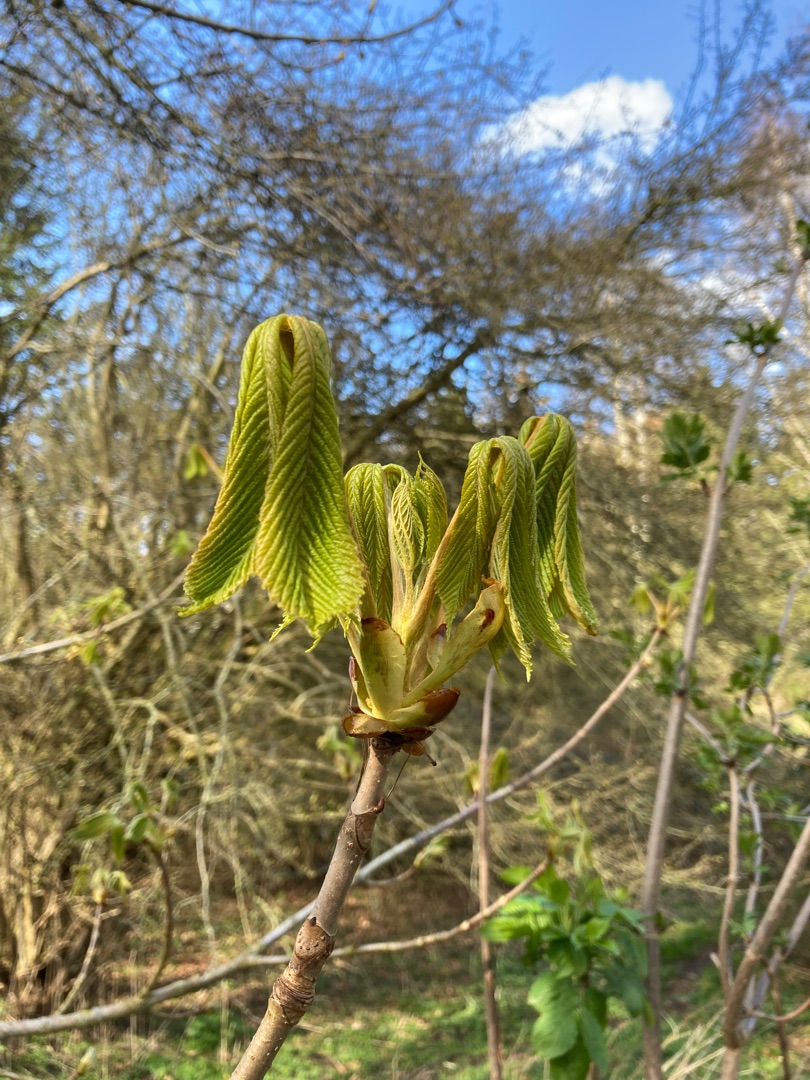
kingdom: Plantae
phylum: Tracheophyta
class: Magnoliopsida
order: Sapindales
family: Sapindaceae
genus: Aesculus
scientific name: Aesculus hippocastanum
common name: Hestekastanie
